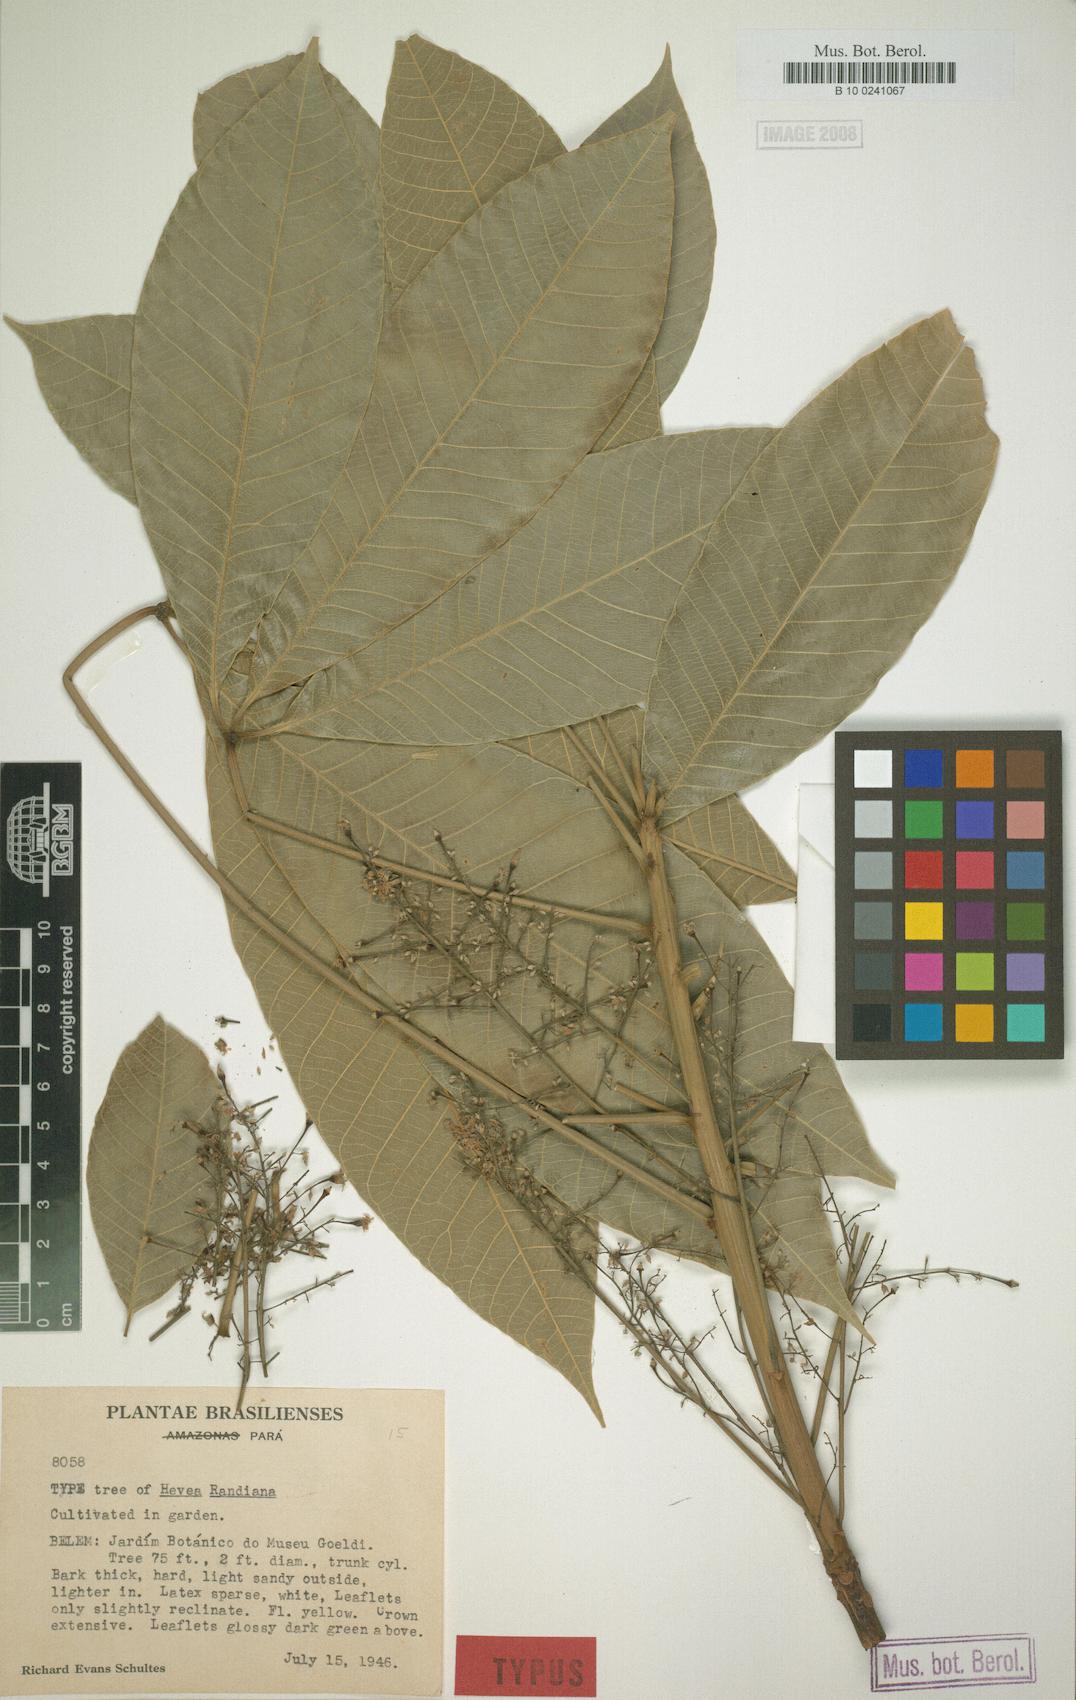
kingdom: Plantae
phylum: Tracheophyta
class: Magnoliopsida
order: Malpighiales
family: Euphorbiaceae
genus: Hevea
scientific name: Hevea brasiliensis
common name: Natural rubber
